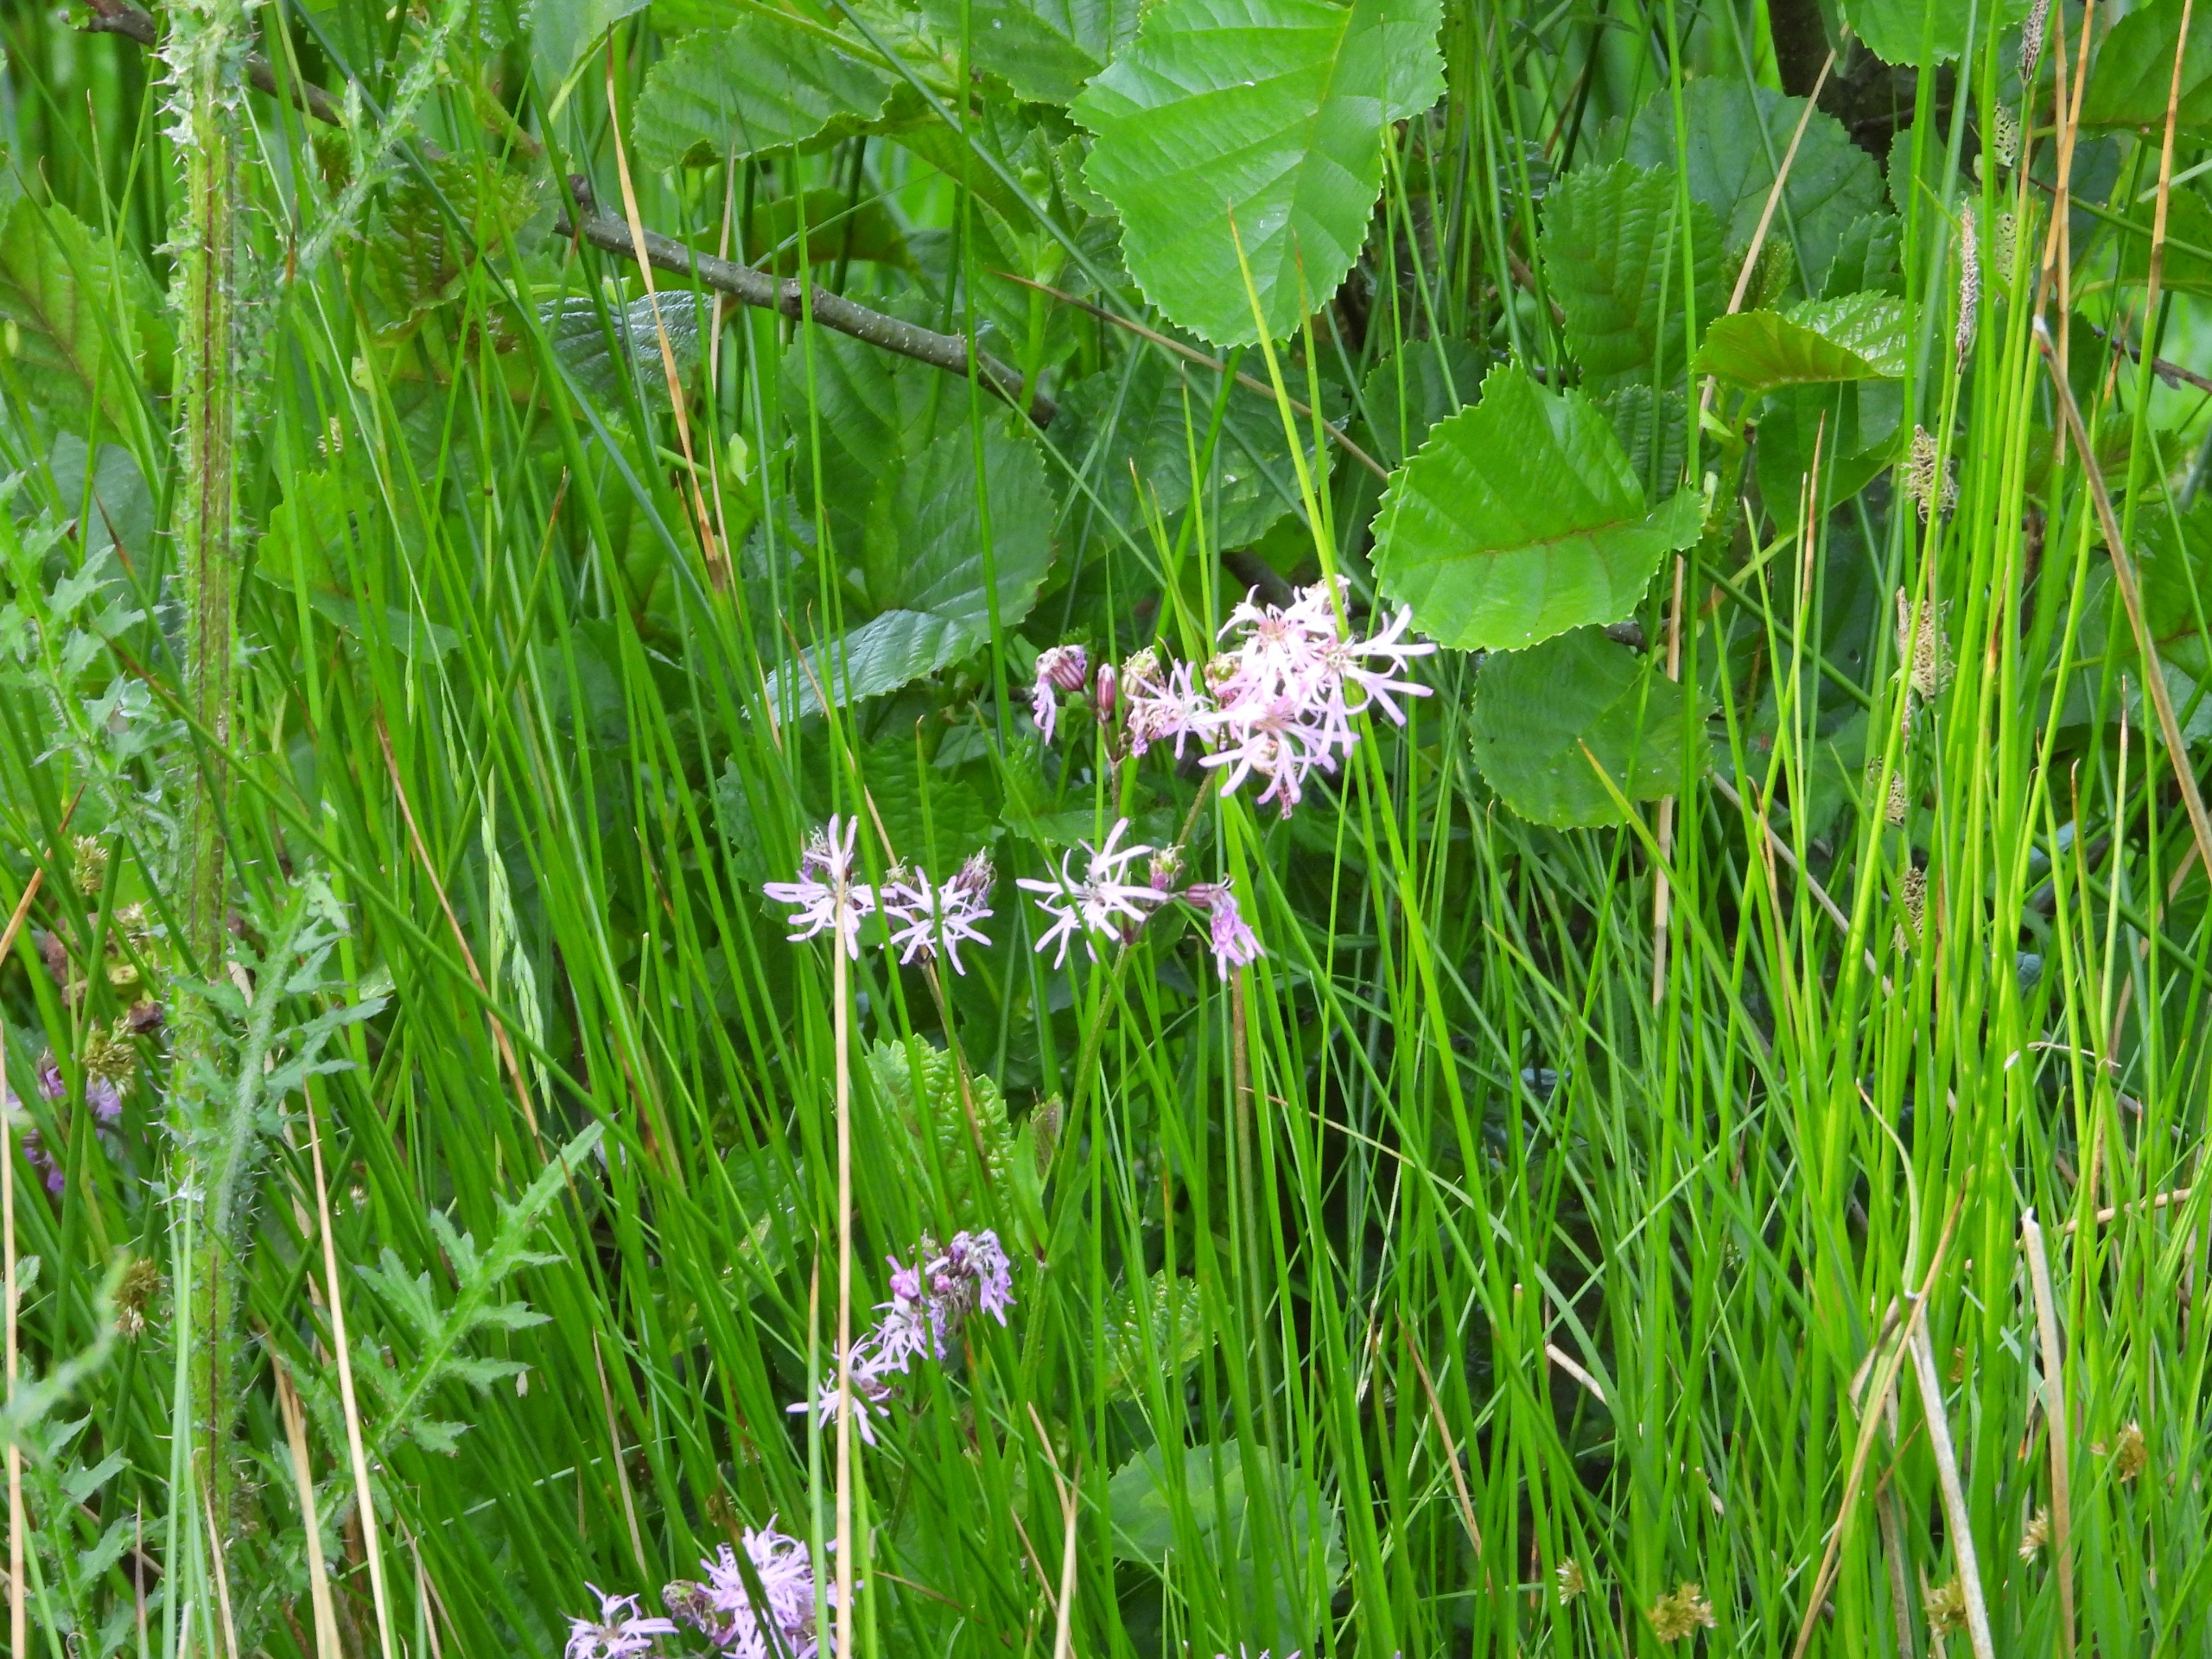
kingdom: Plantae
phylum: Tracheophyta
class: Magnoliopsida
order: Caryophyllales
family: Caryophyllaceae
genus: Silene
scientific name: Silene flos-cuculi
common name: Trævlekrone
